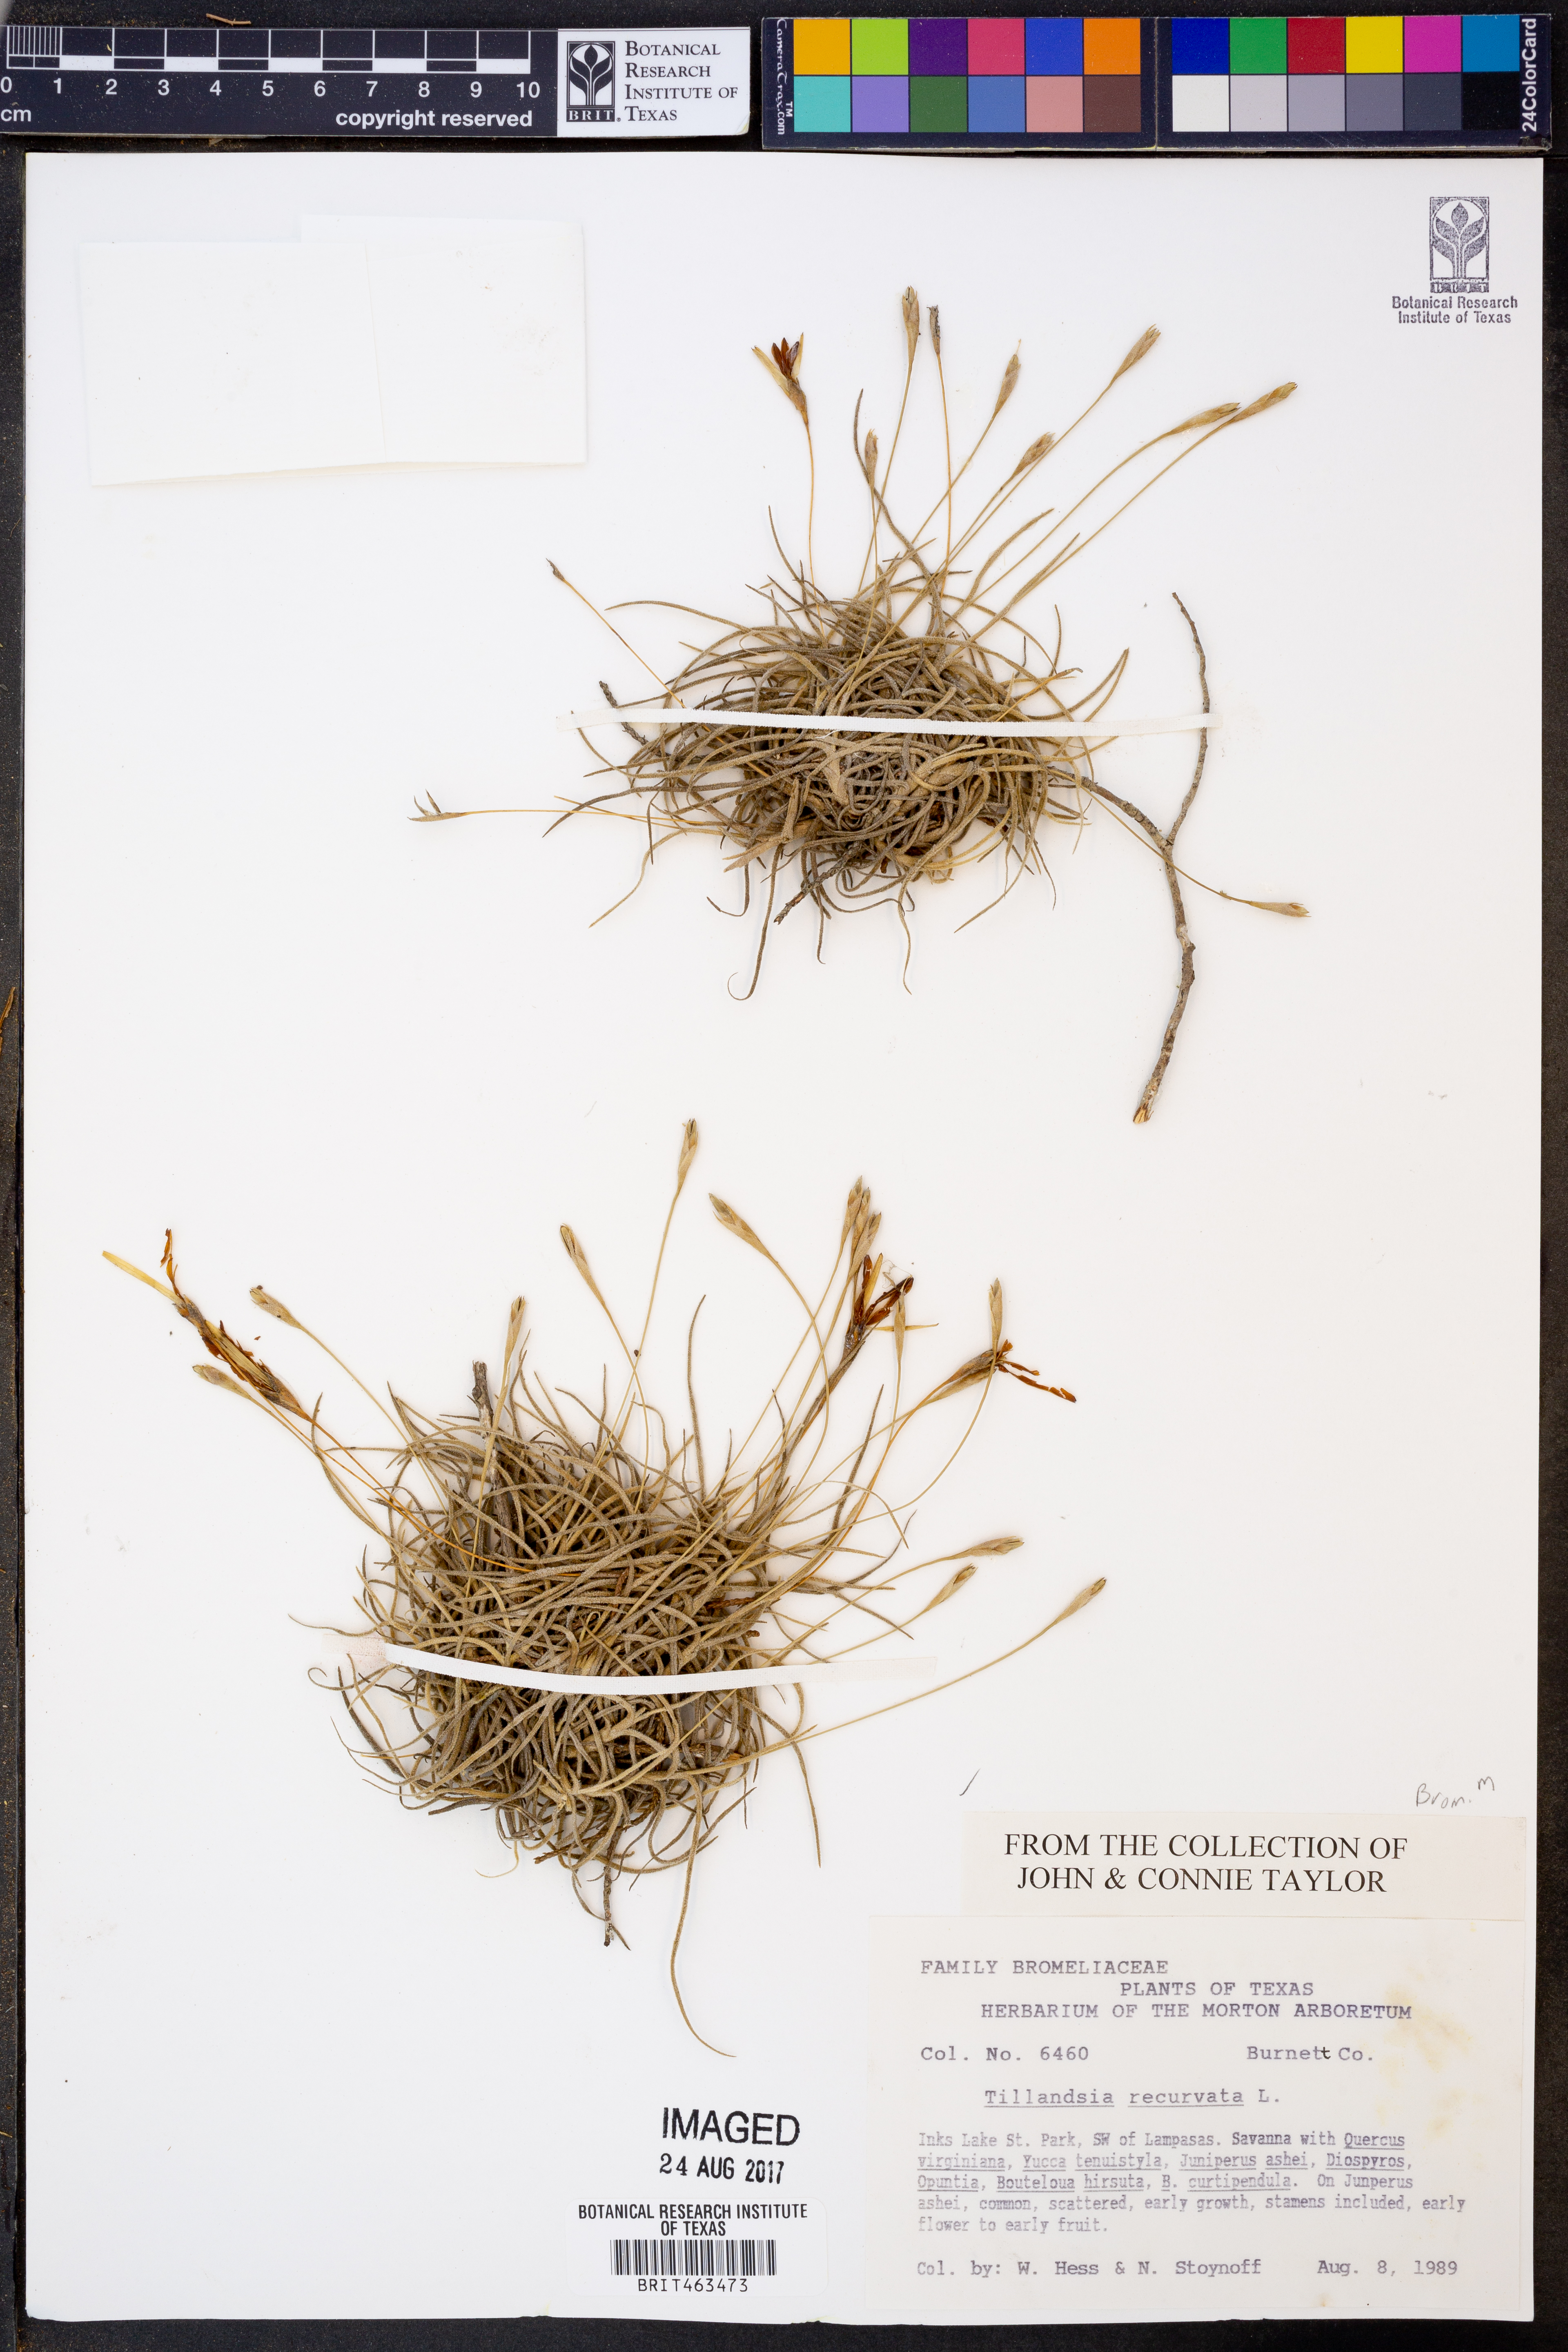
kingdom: Plantae
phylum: Tracheophyta
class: Liliopsida
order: Poales
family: Bromeliaceae
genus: Tillandsia
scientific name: Tillandsia recurvata
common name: Small ballmoss
